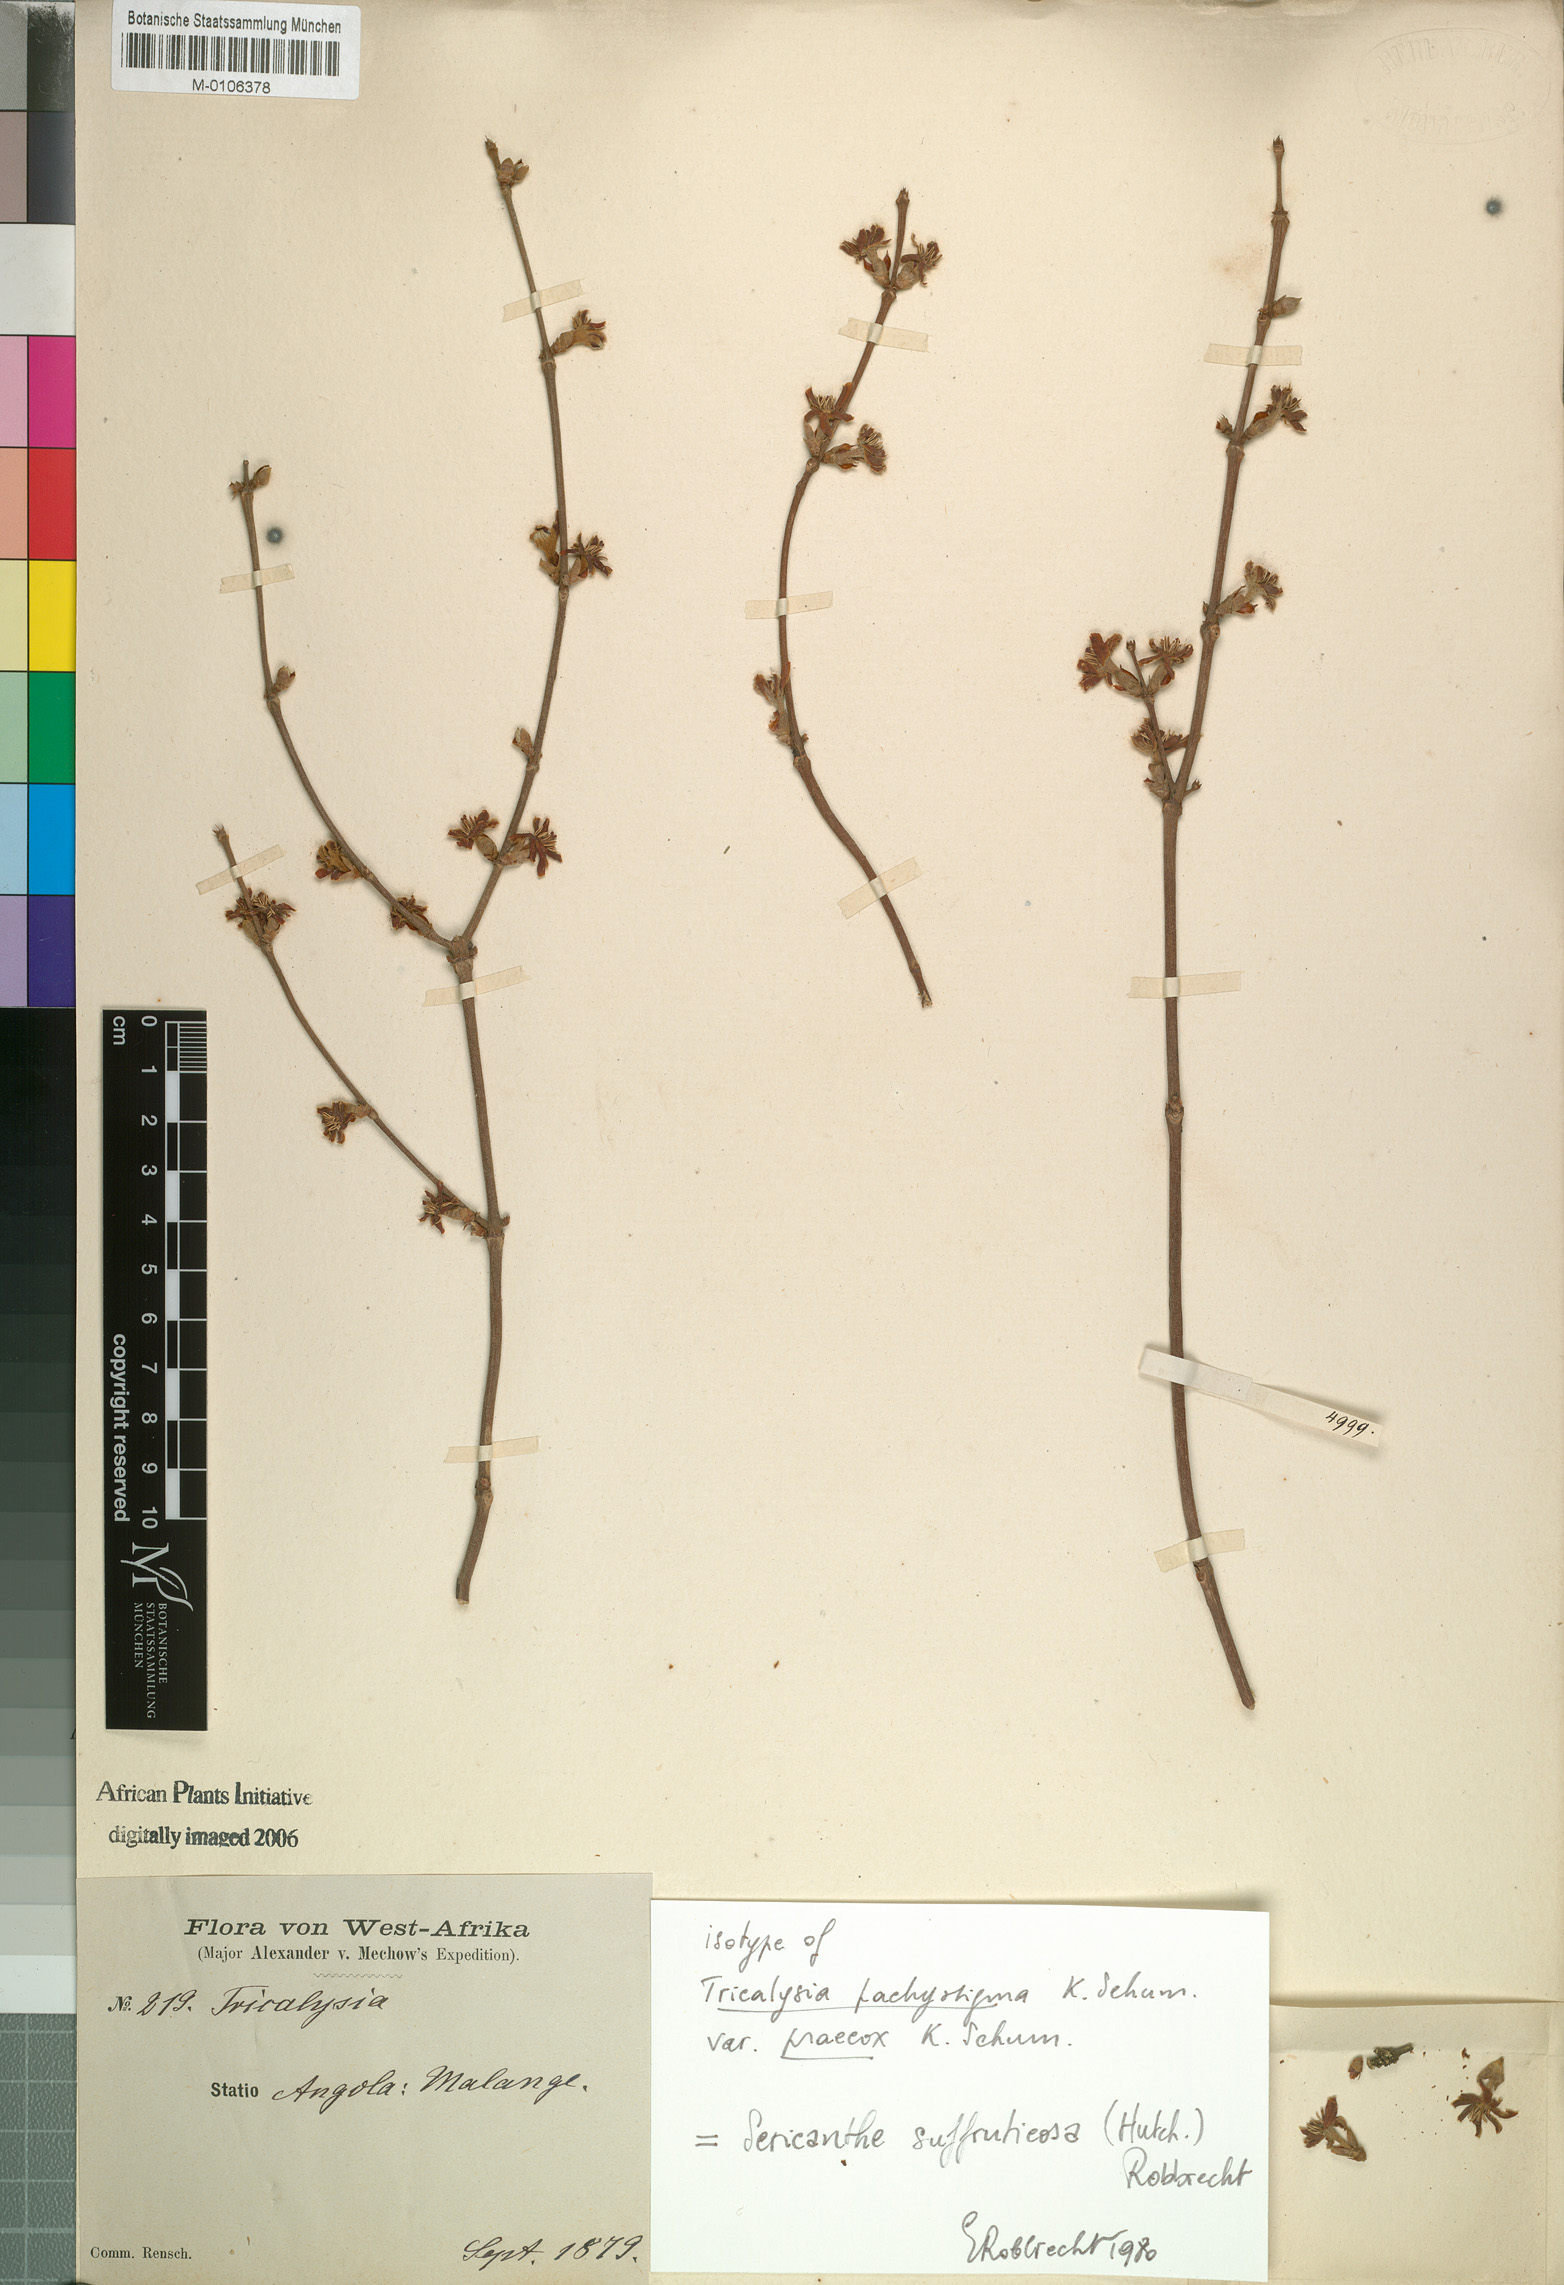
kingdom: Plantae
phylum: Tracheophyta
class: Magnoliopsida
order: Gentianales
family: Rubiaceae
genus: Sericanthe
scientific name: Sericanthe suffruticosa
